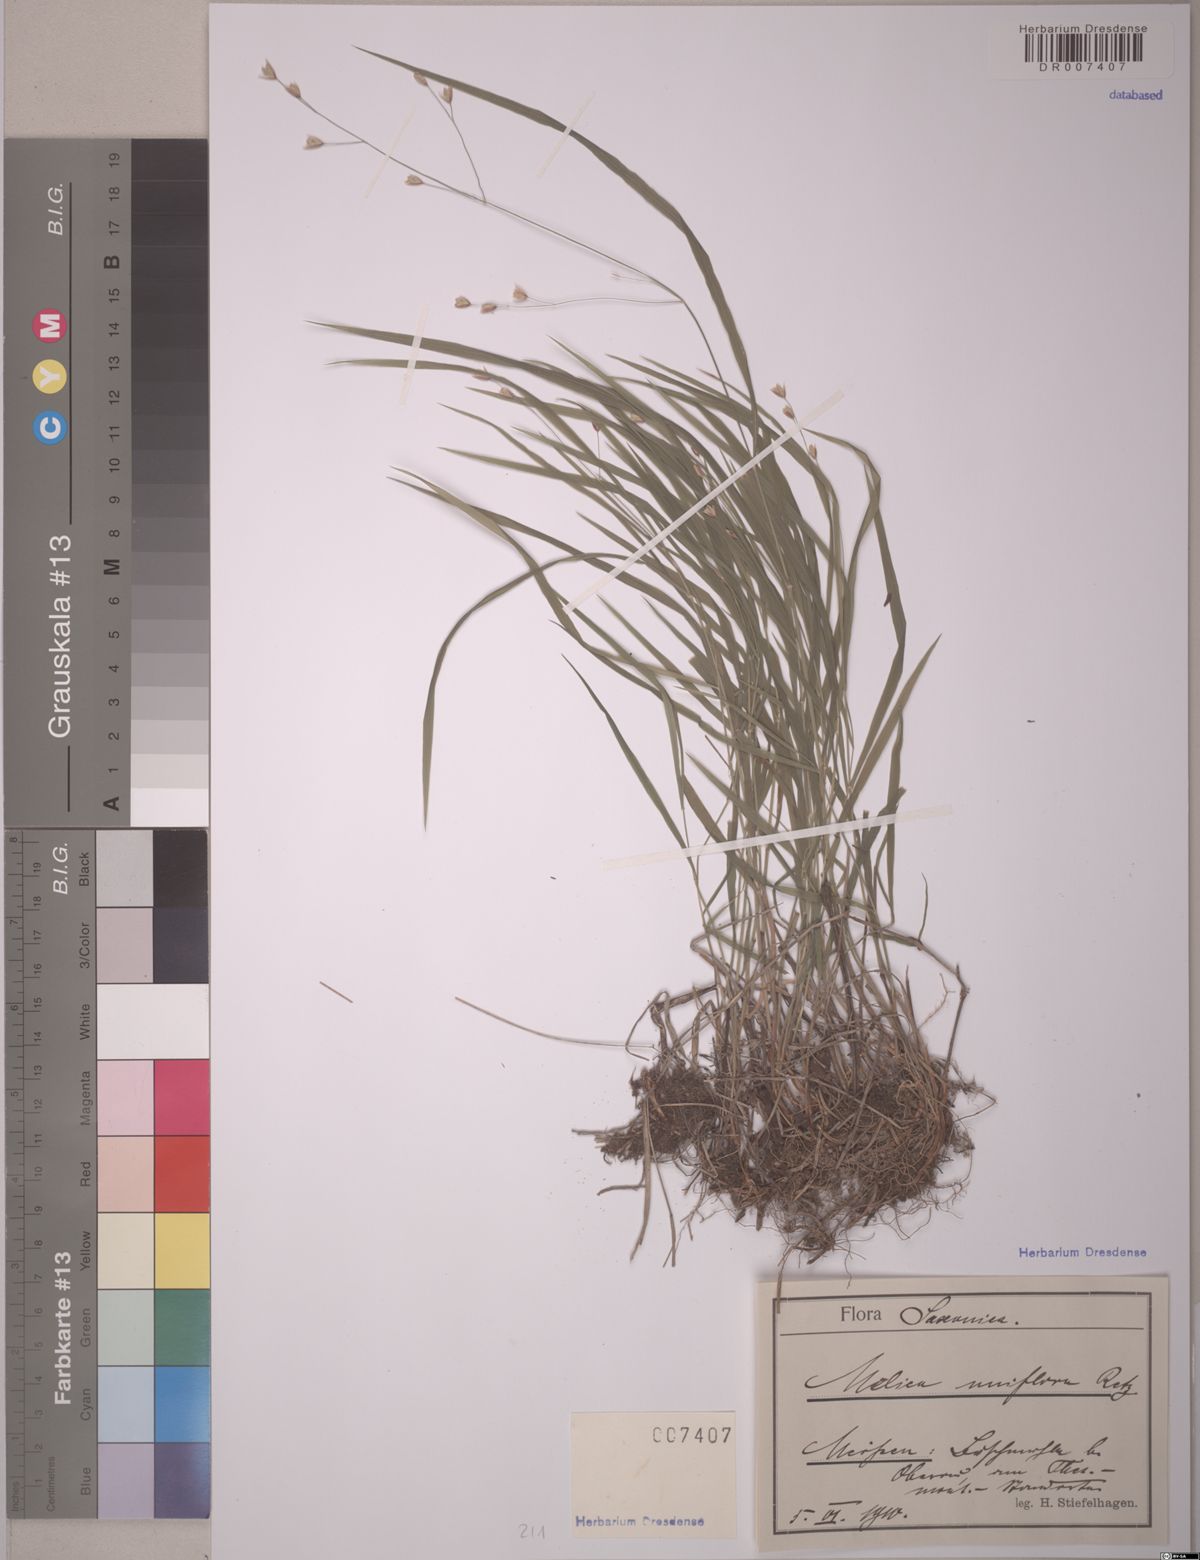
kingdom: Plantae
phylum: Tracheophyta
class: Liliopsida
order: Poales
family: Poaceae
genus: Melica
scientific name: Melica uniflora
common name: Wood melick
